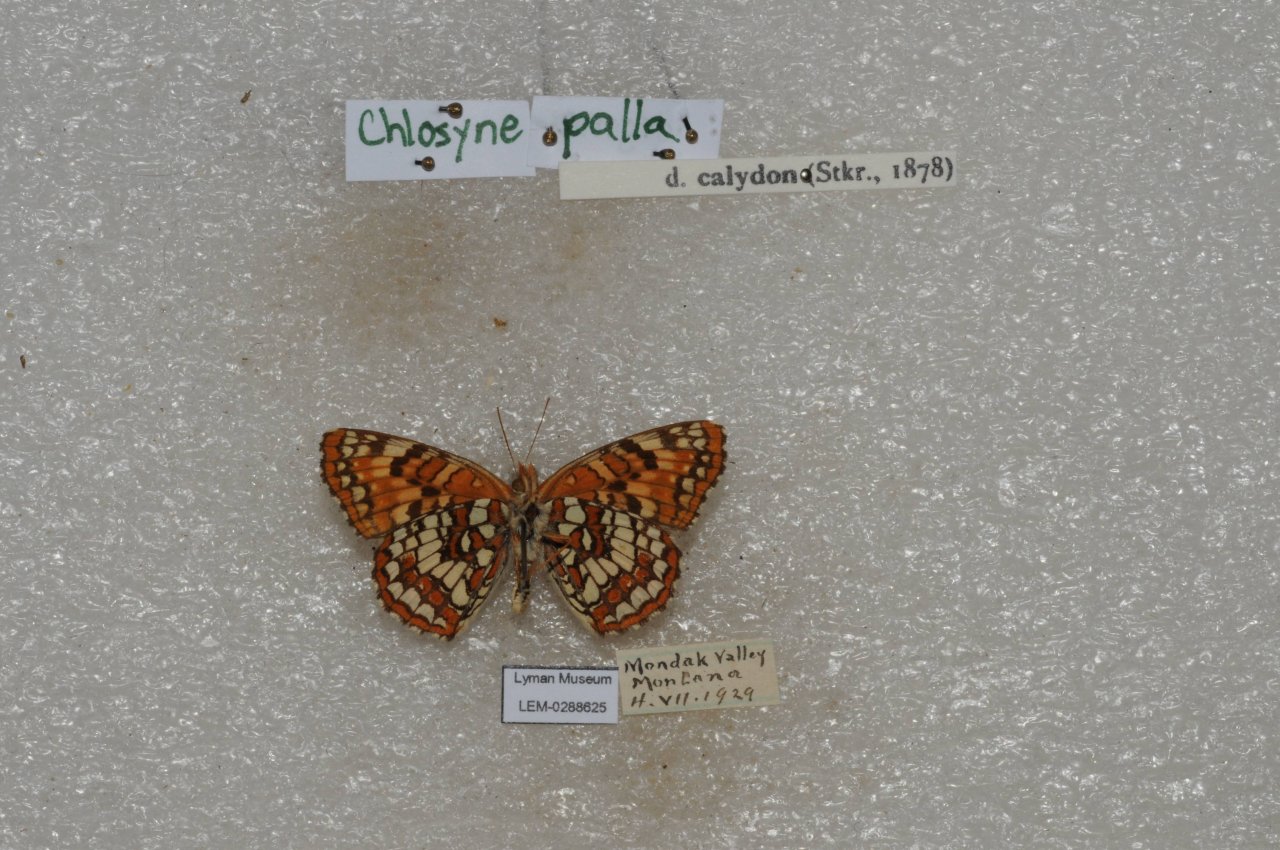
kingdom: Animalia
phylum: Arthropoda
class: Insecta
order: Lepidoptera
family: Nymphalidae
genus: Chlosyne
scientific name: Chlosyne palla
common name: Northern Checkerspot
